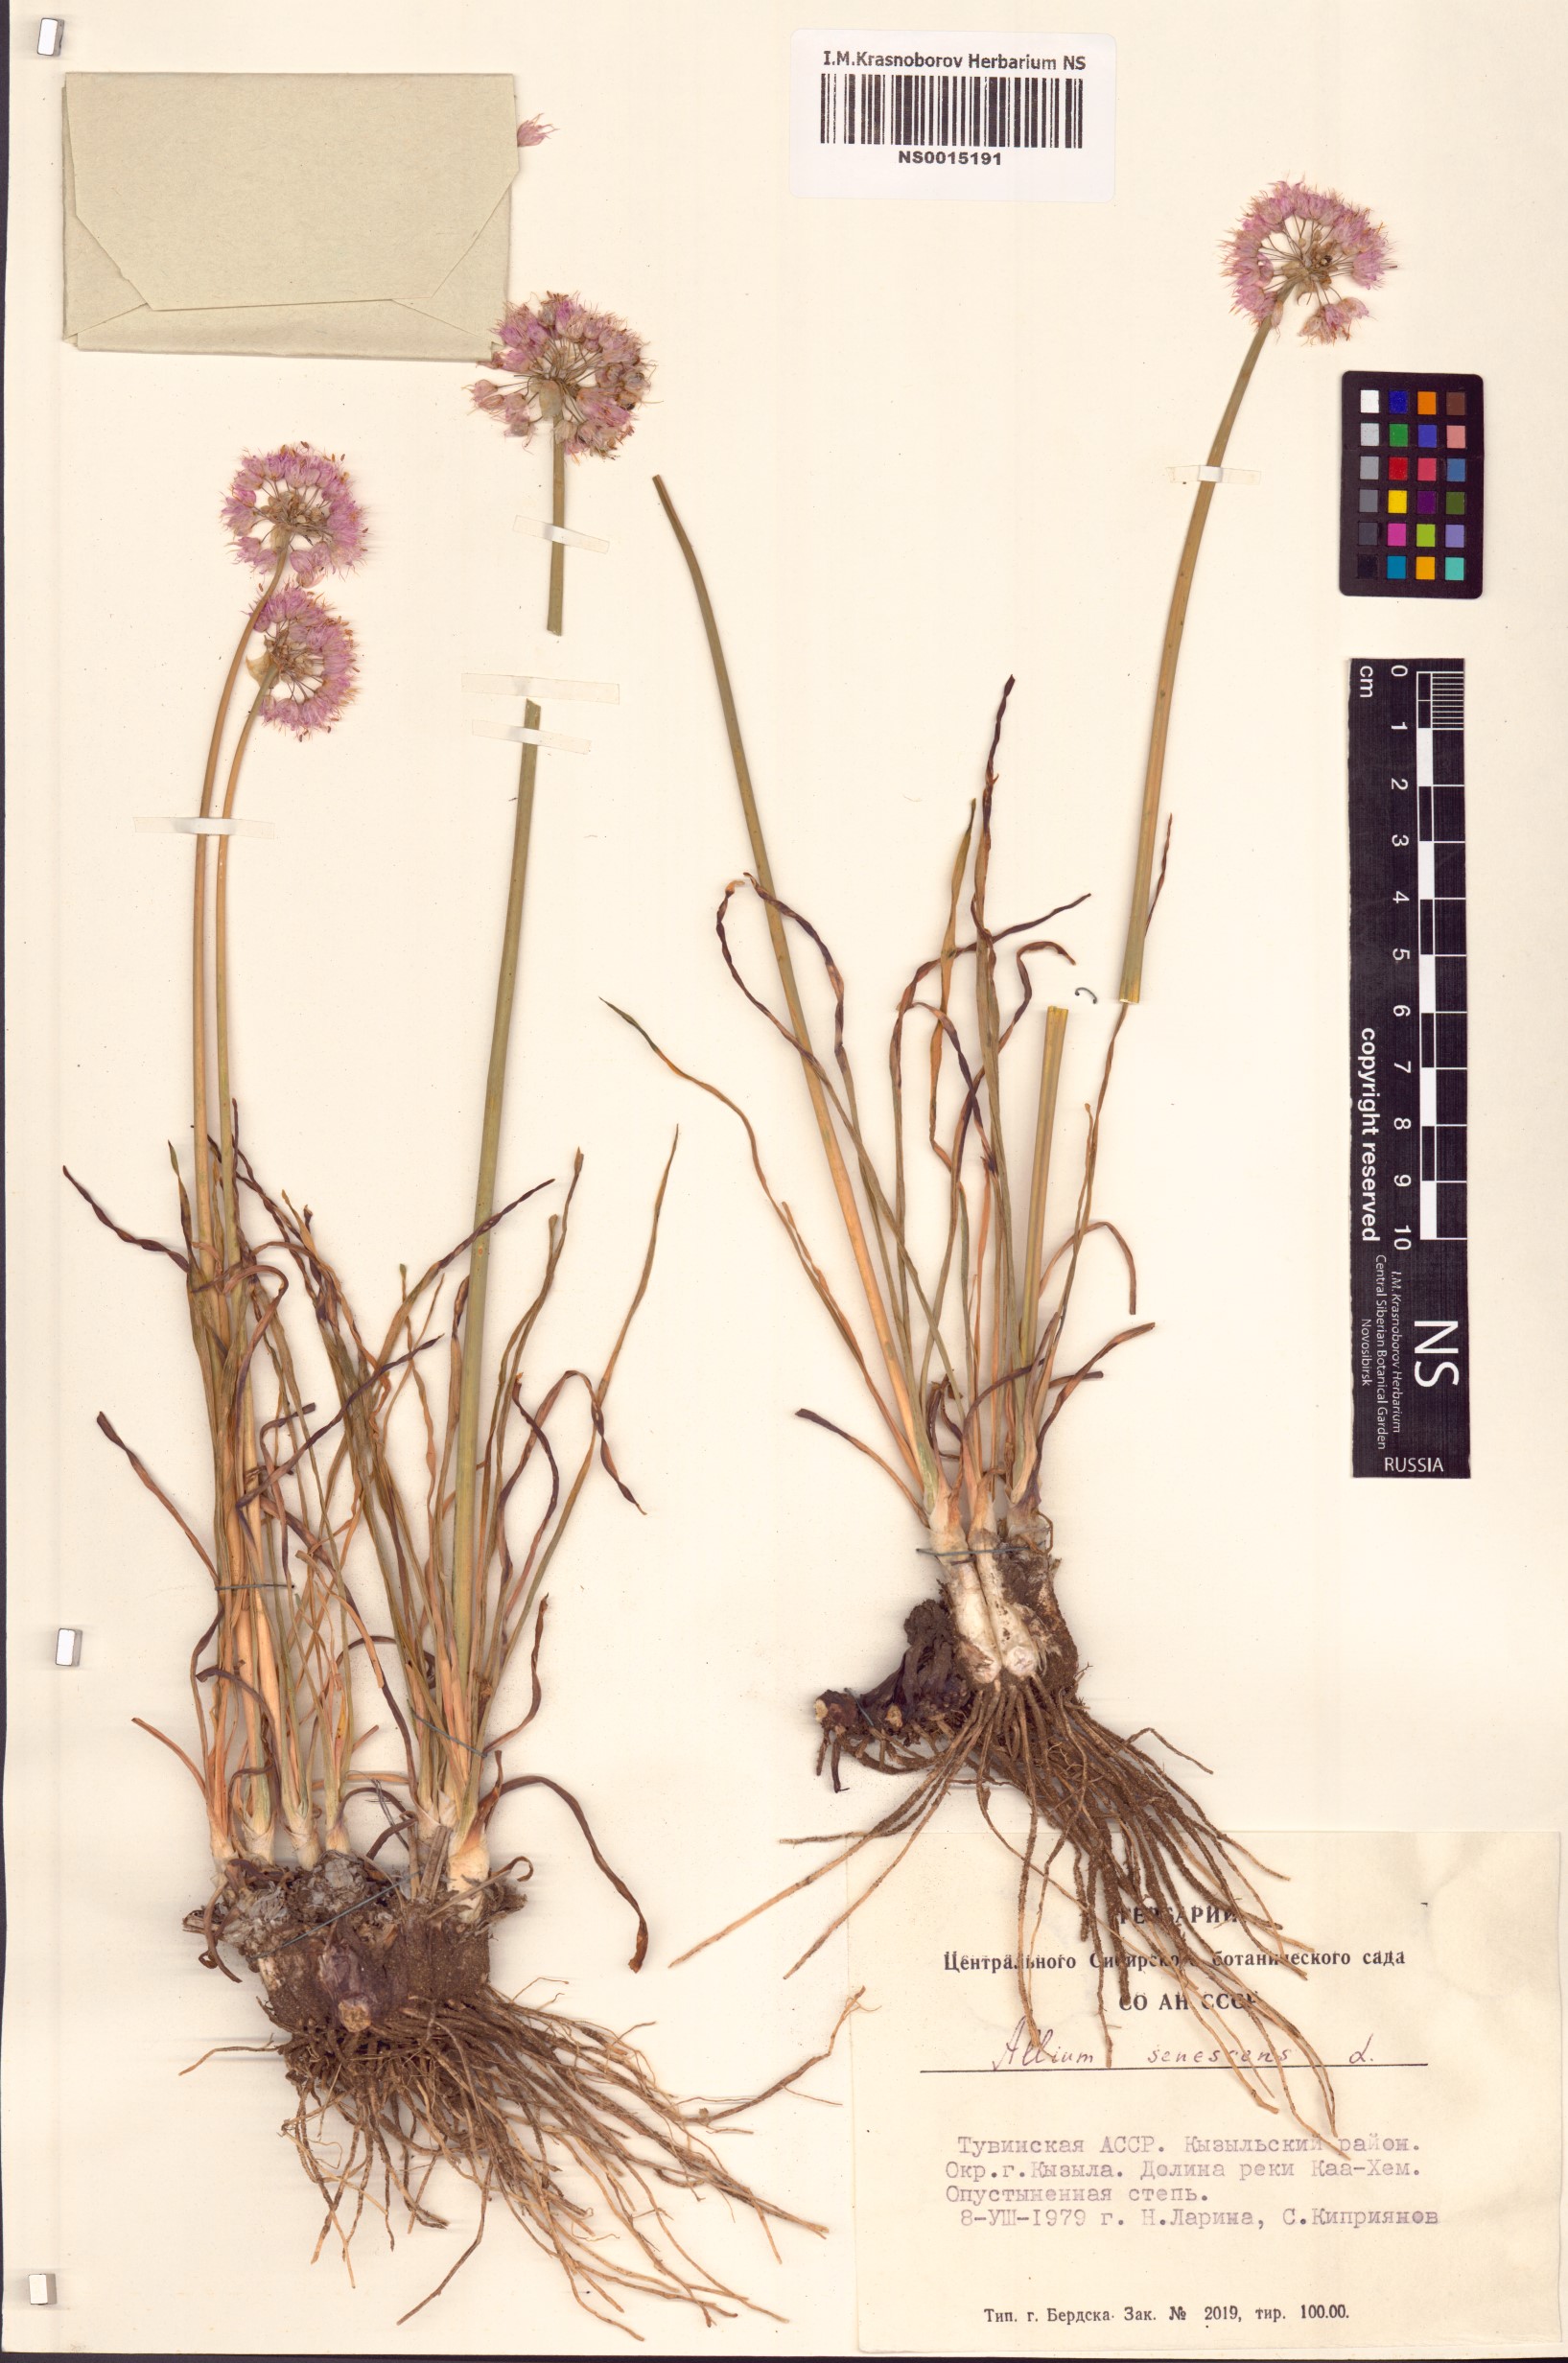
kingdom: Plantae
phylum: Tracheophyta
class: Liliopsida
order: Asparagales
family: Amaryllidaceae
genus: Allium
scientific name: Allium senescens
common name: German garlic
